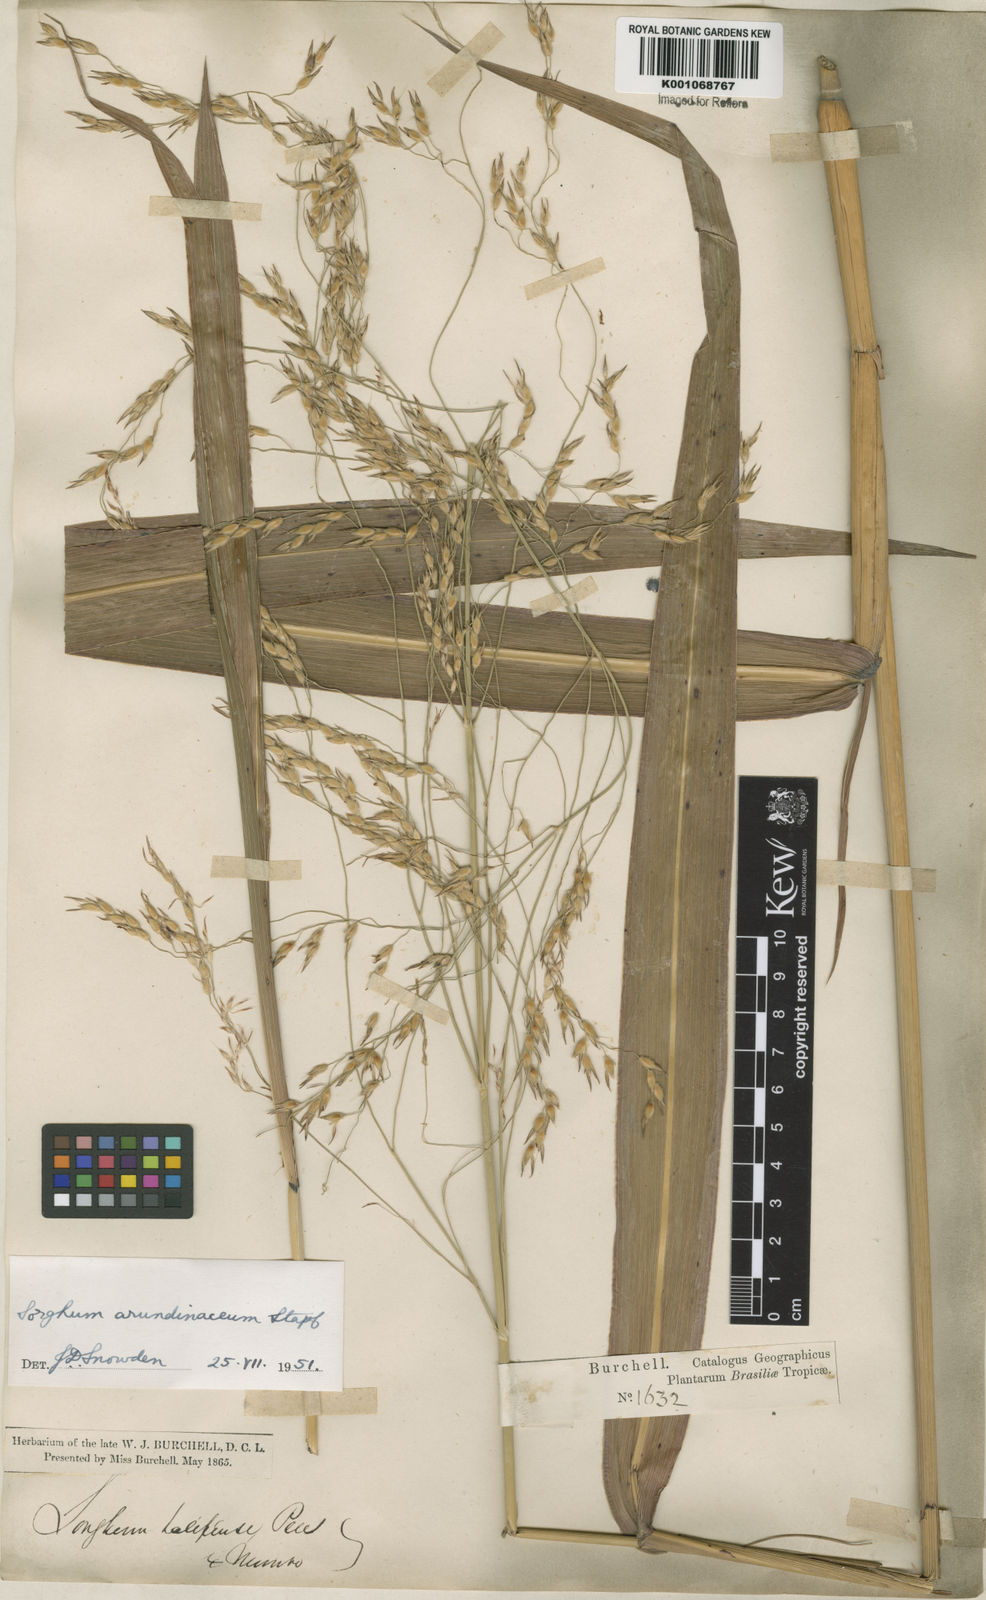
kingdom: Plantae
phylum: Tracheophyta
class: Liliopsida
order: Poales
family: Poaceae
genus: Sorghum
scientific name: Sorghum arundinaceum
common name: Sorghum
